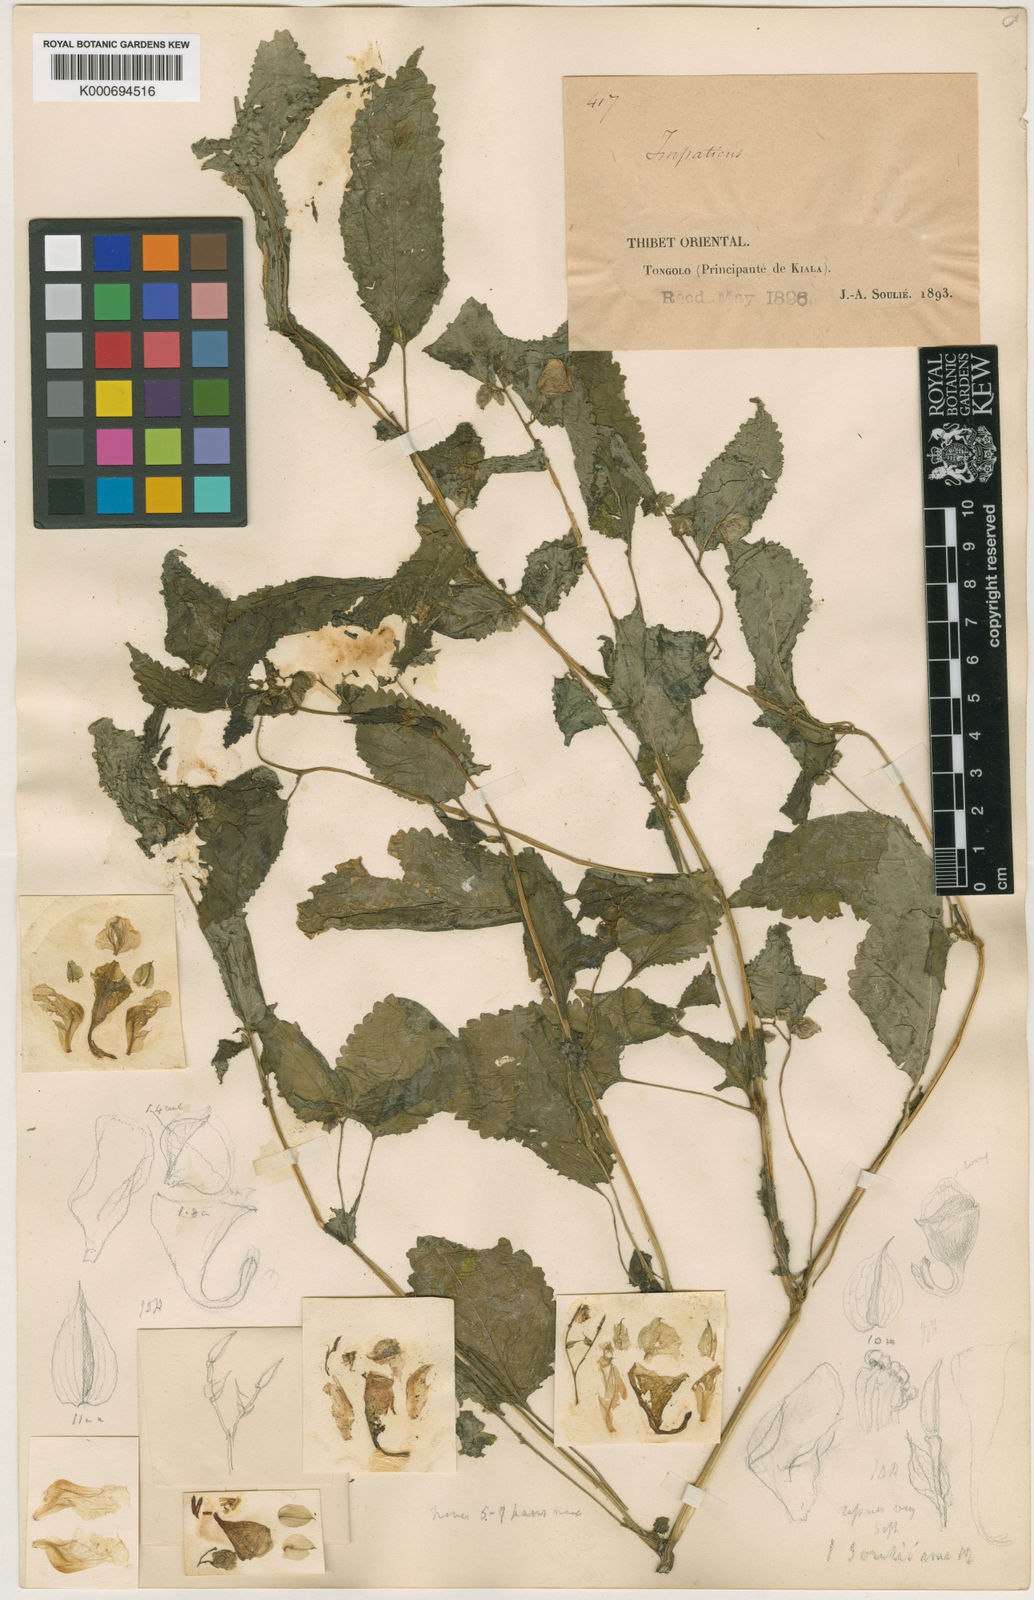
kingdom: Plantae
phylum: Tracheophyta
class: Magnoliopsida
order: Ericales
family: Balsaminaceae
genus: Impatiens
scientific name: Impatiens soulieana
